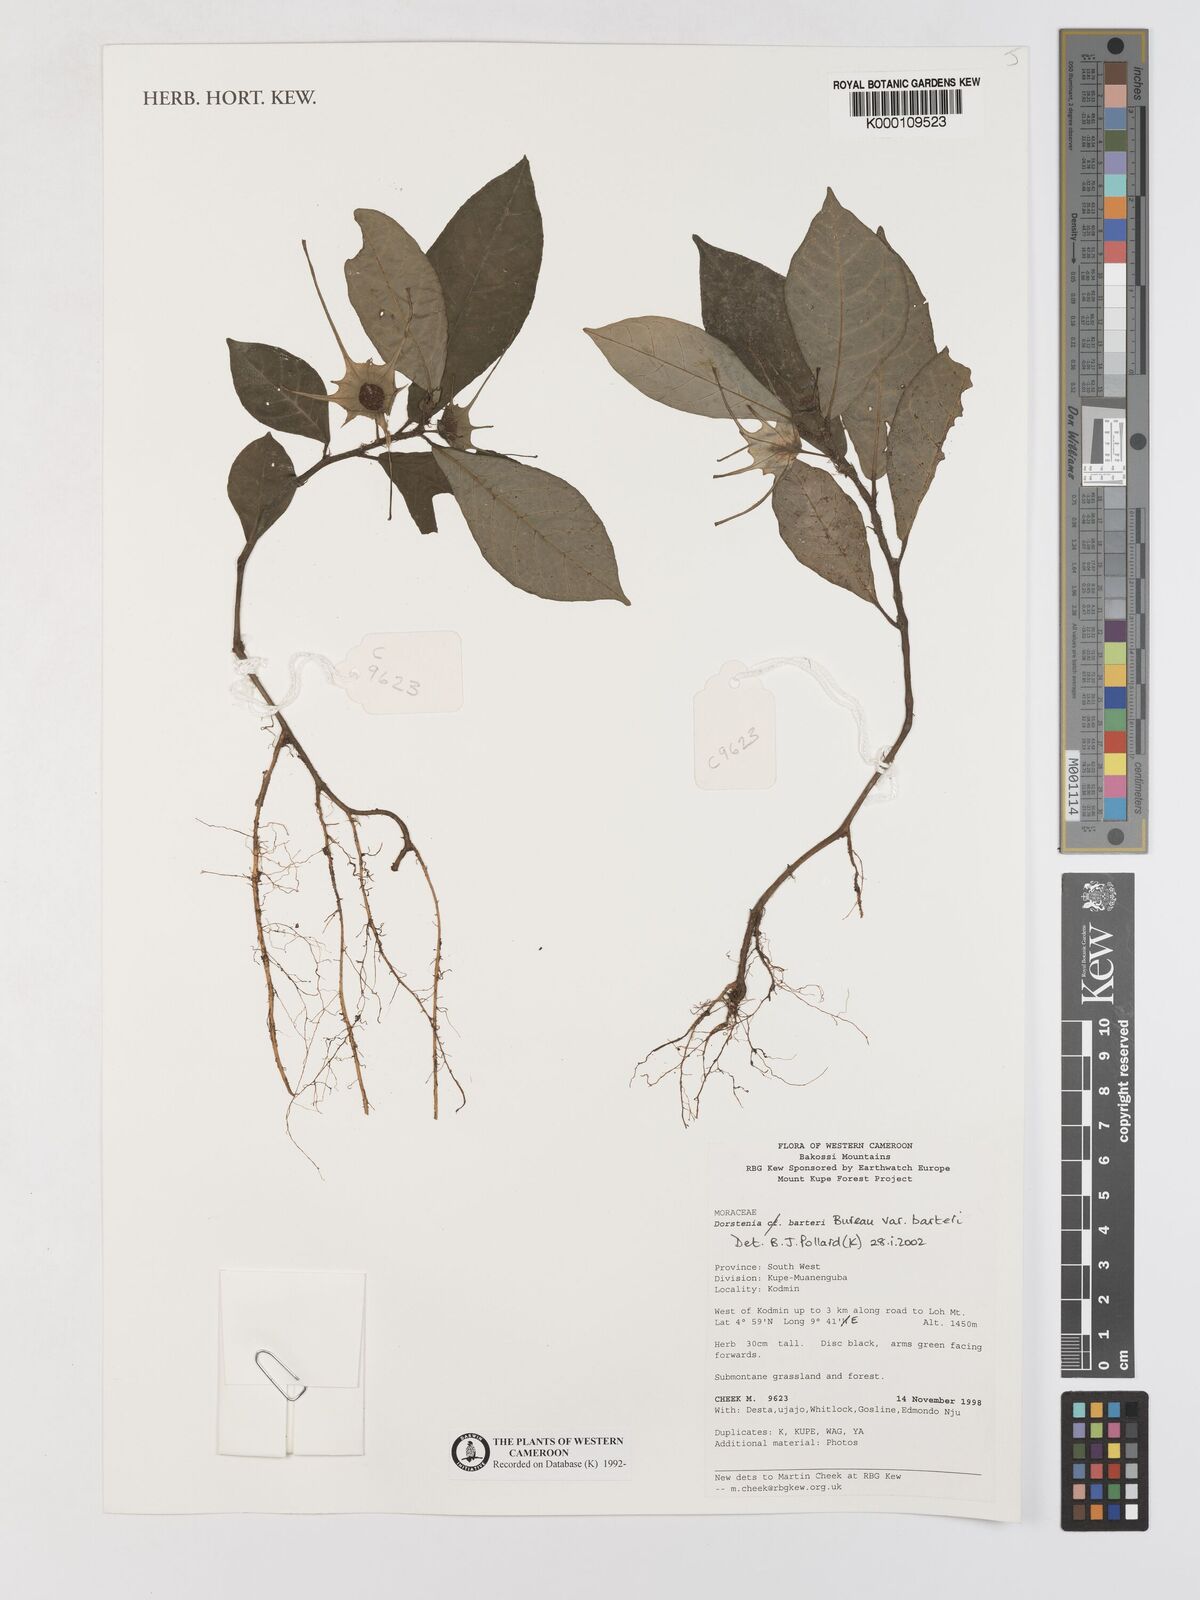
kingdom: Plantae
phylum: Tracheophyta
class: Magnoliopsida
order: Rosales
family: Moraceae
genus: Dorstenia
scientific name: Dorstenia barteri
